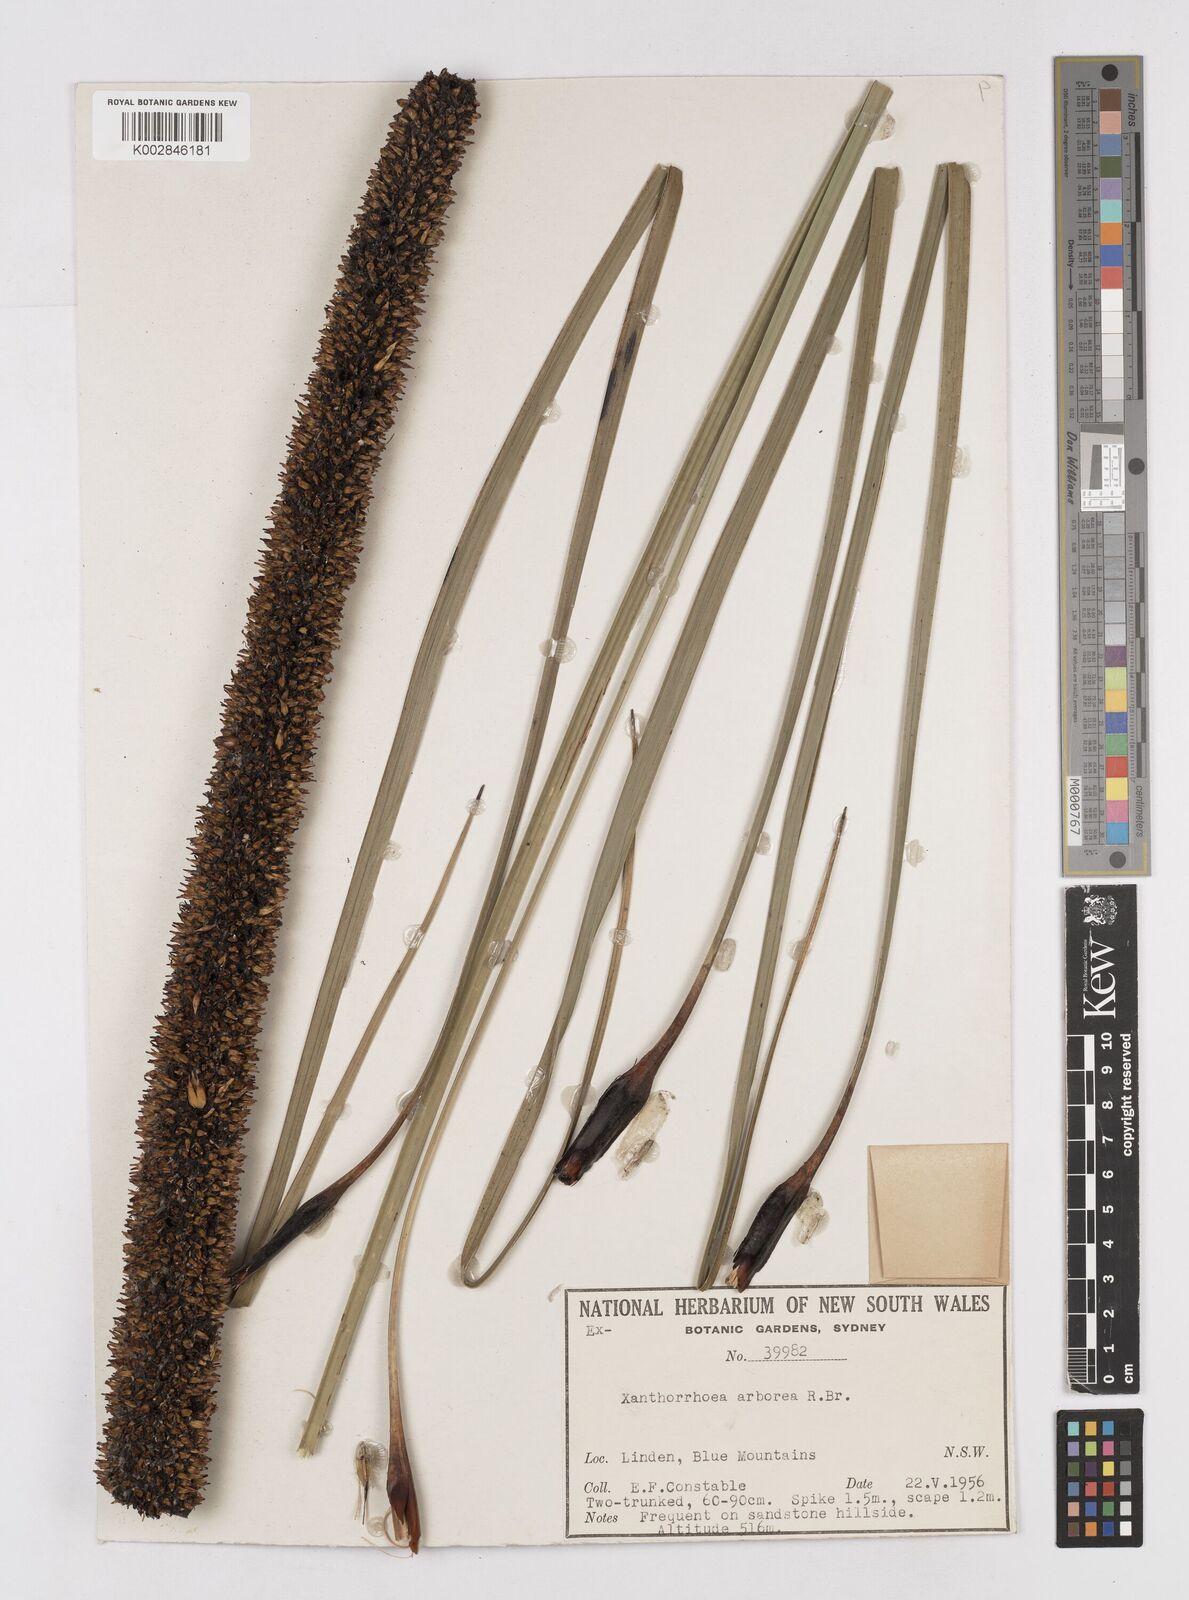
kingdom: Plantae
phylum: Tracheophyta
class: Liliopsida
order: Asparagales
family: Asphodelaceae
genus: Xanthorrhoea
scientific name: Xanthorrhoea arborea
